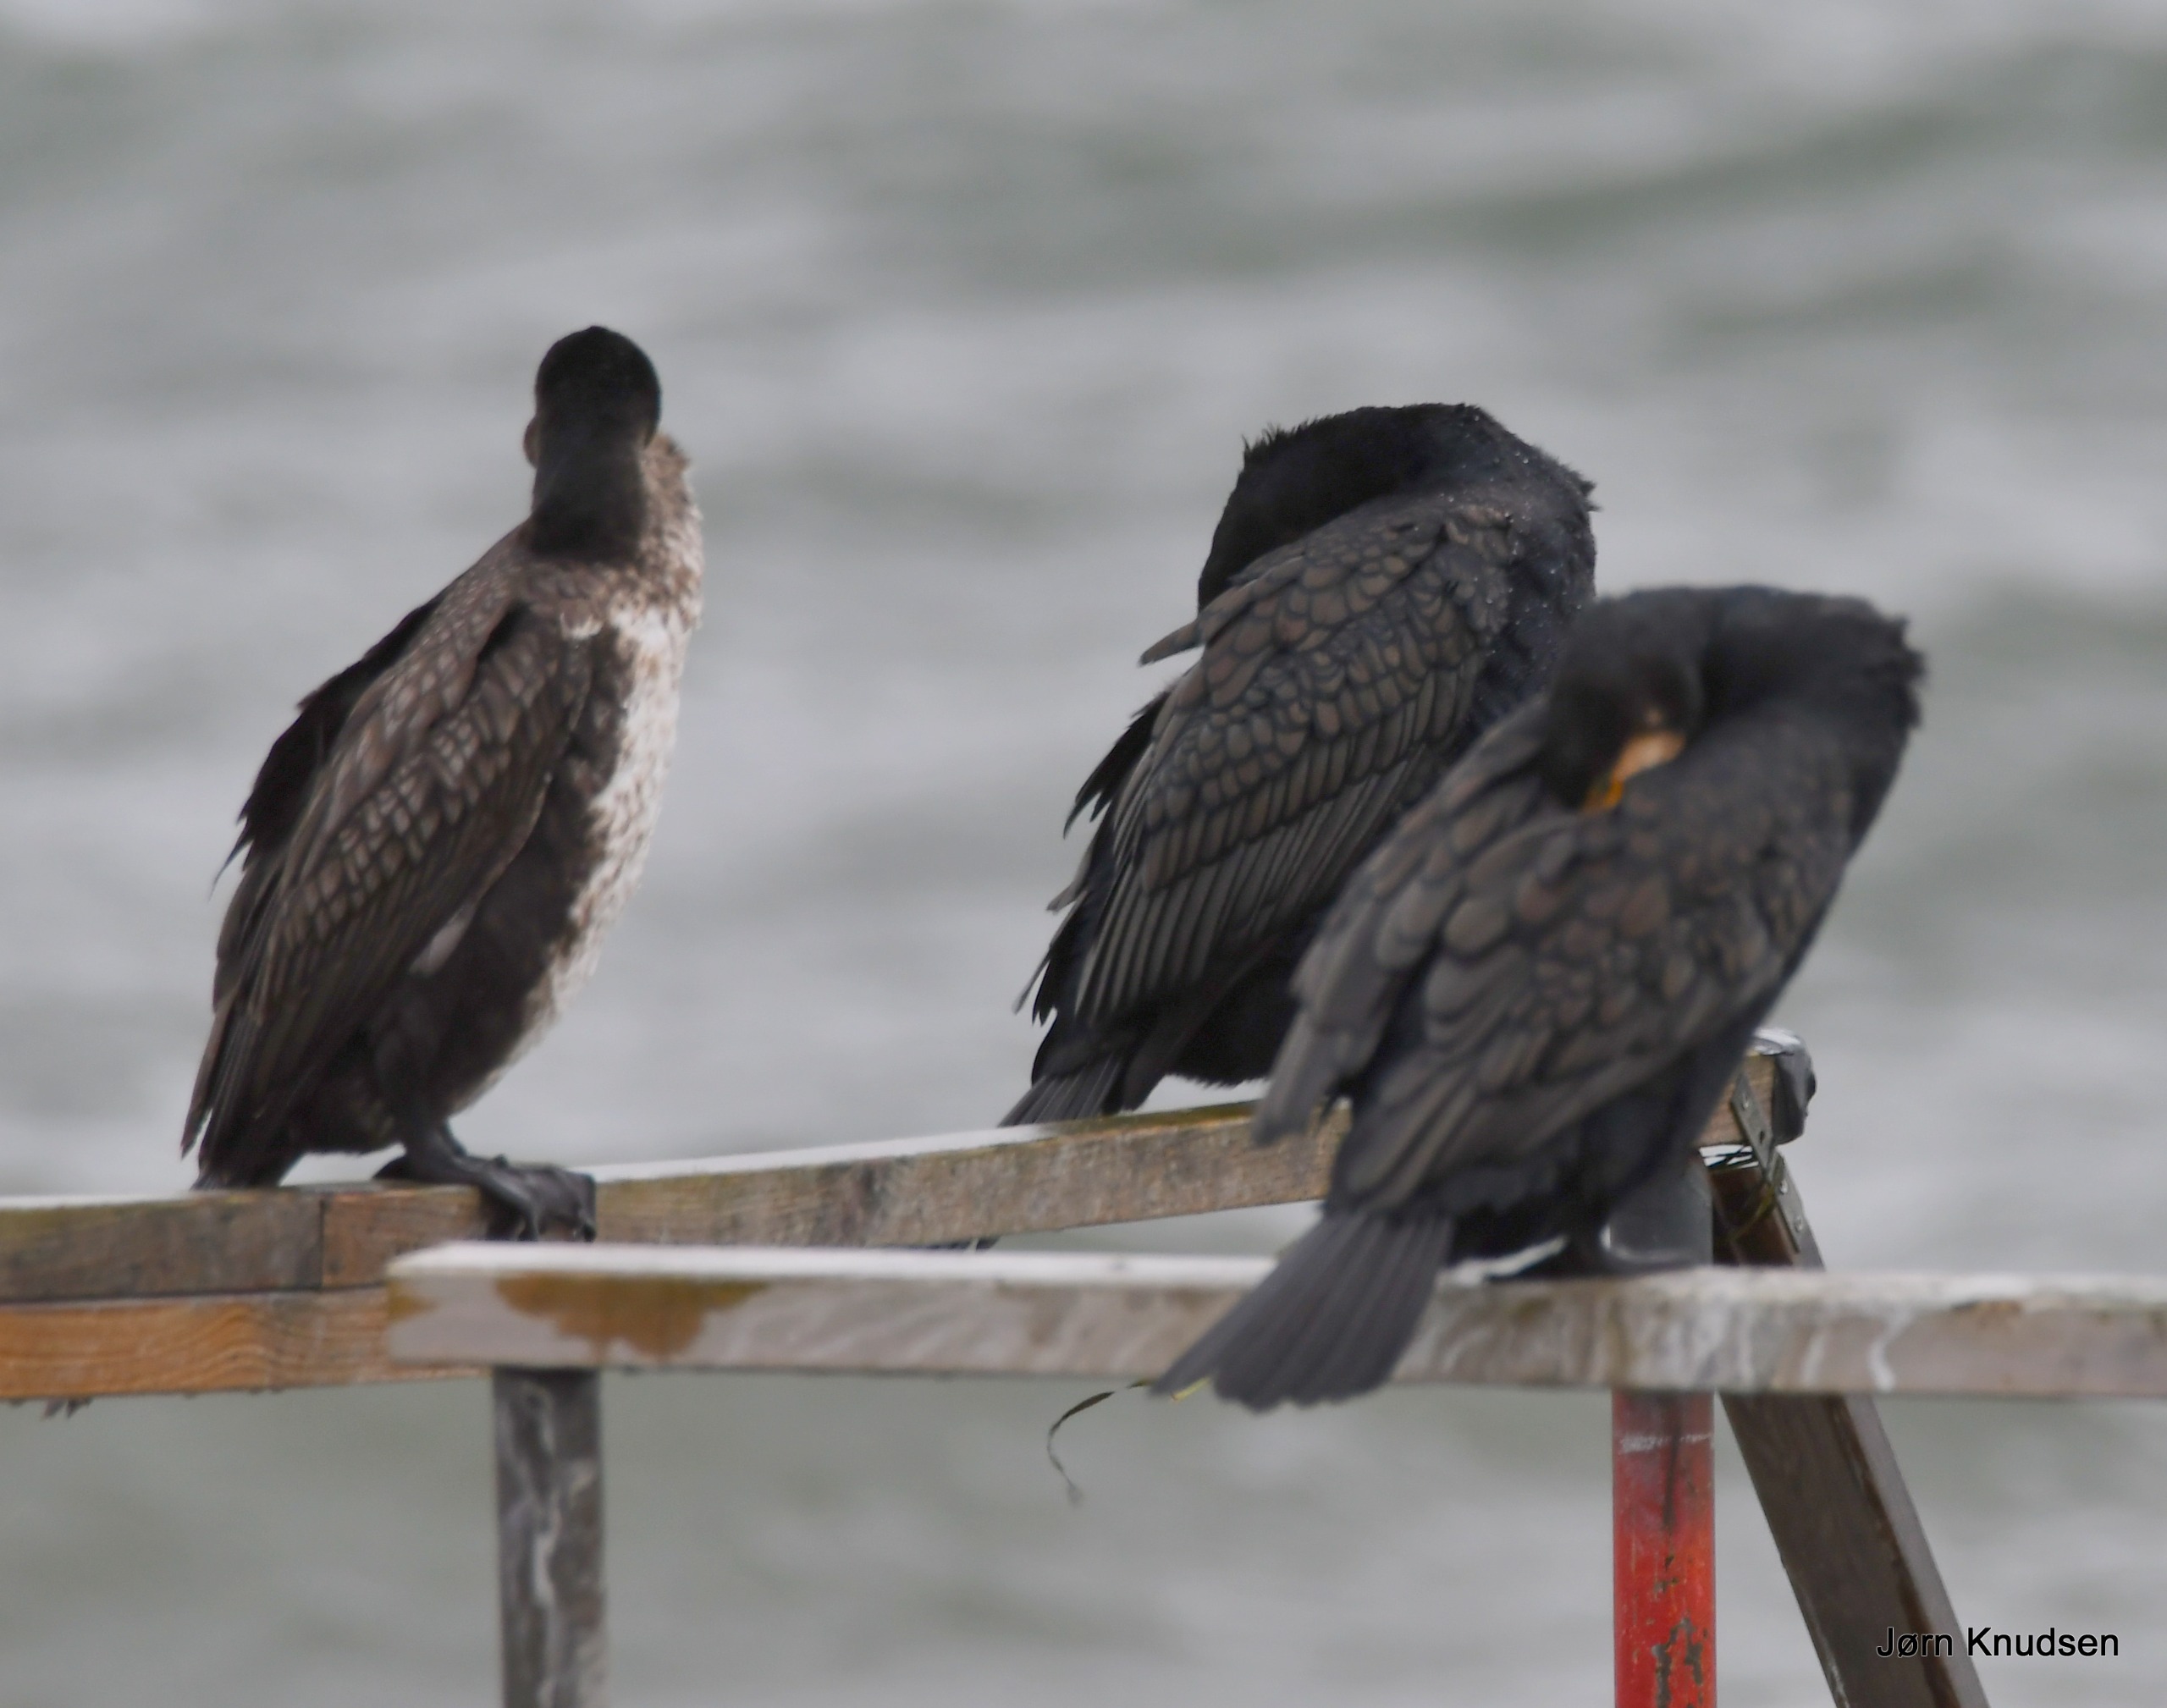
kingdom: Animalia
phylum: Chordata
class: Aves
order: Suliformes
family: Phalacrocoracidae
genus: Phalacrocorax
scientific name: Phalacrocorax carbo
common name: Skarv
